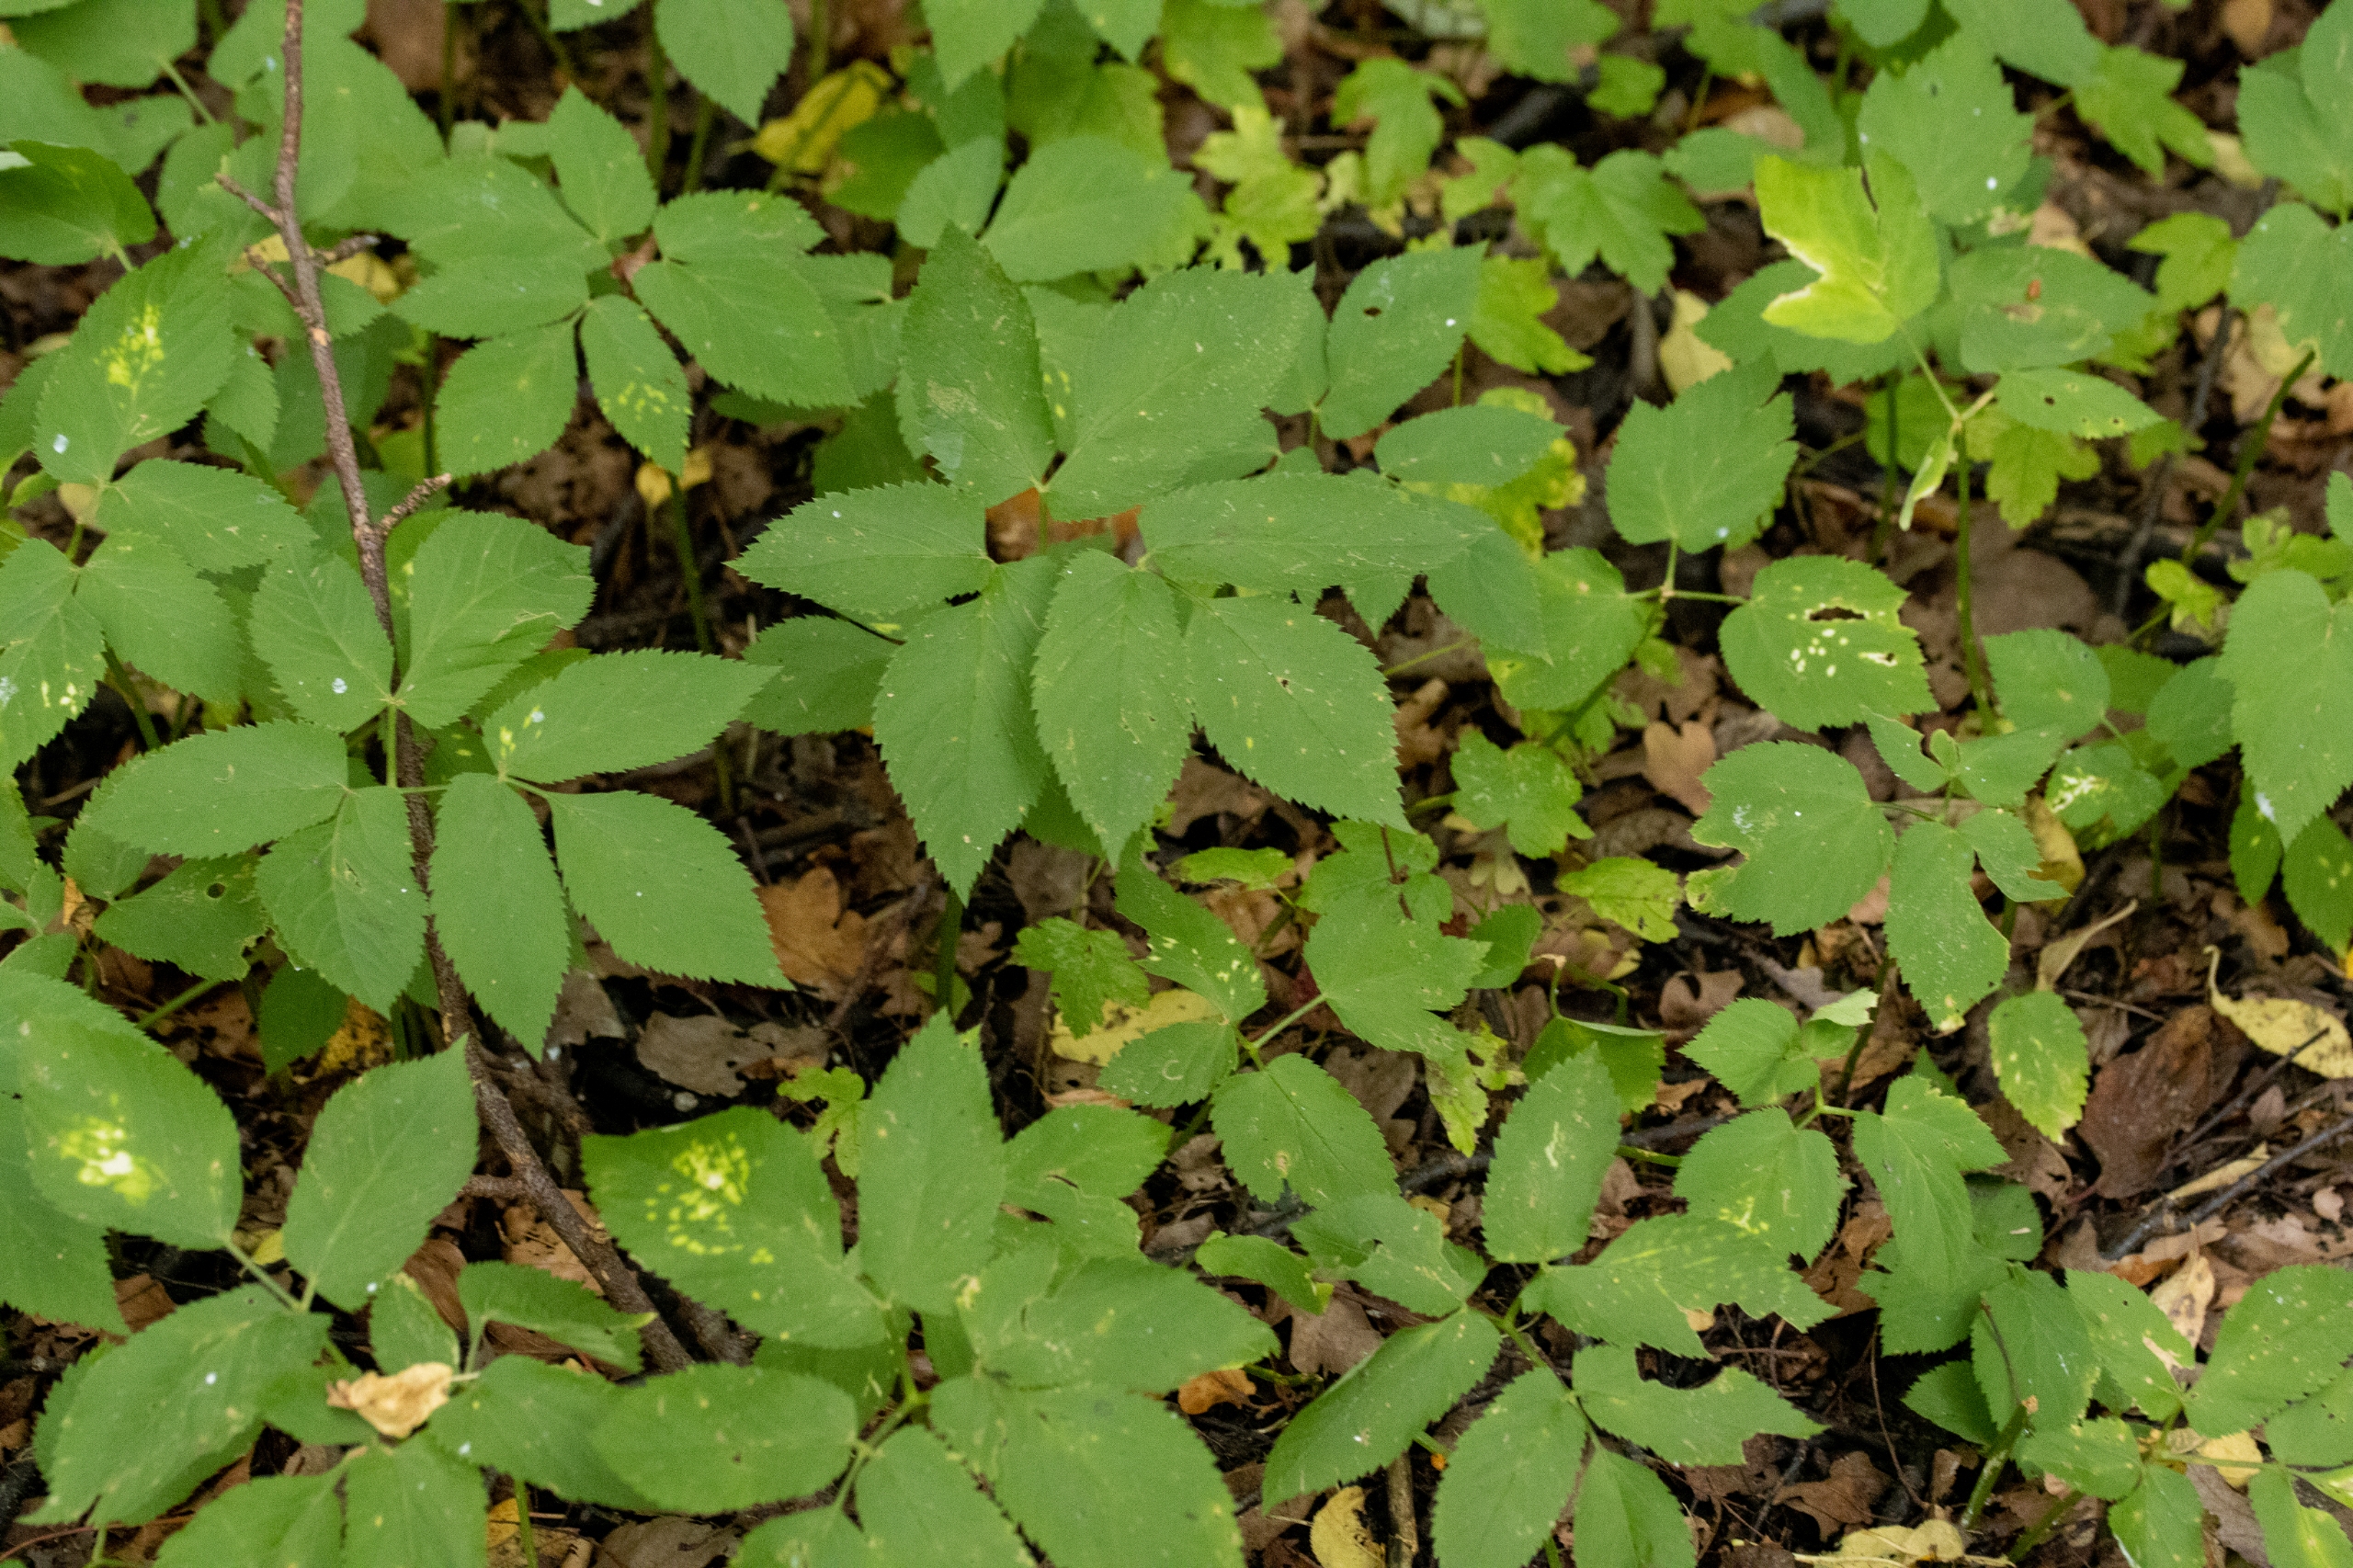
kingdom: Plantae
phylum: Tracheophyta
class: Magnoliopsida
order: Apiales
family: Apiaceae
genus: Aegopodium
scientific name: Aegopodium podagraria
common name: Skvalderkål
